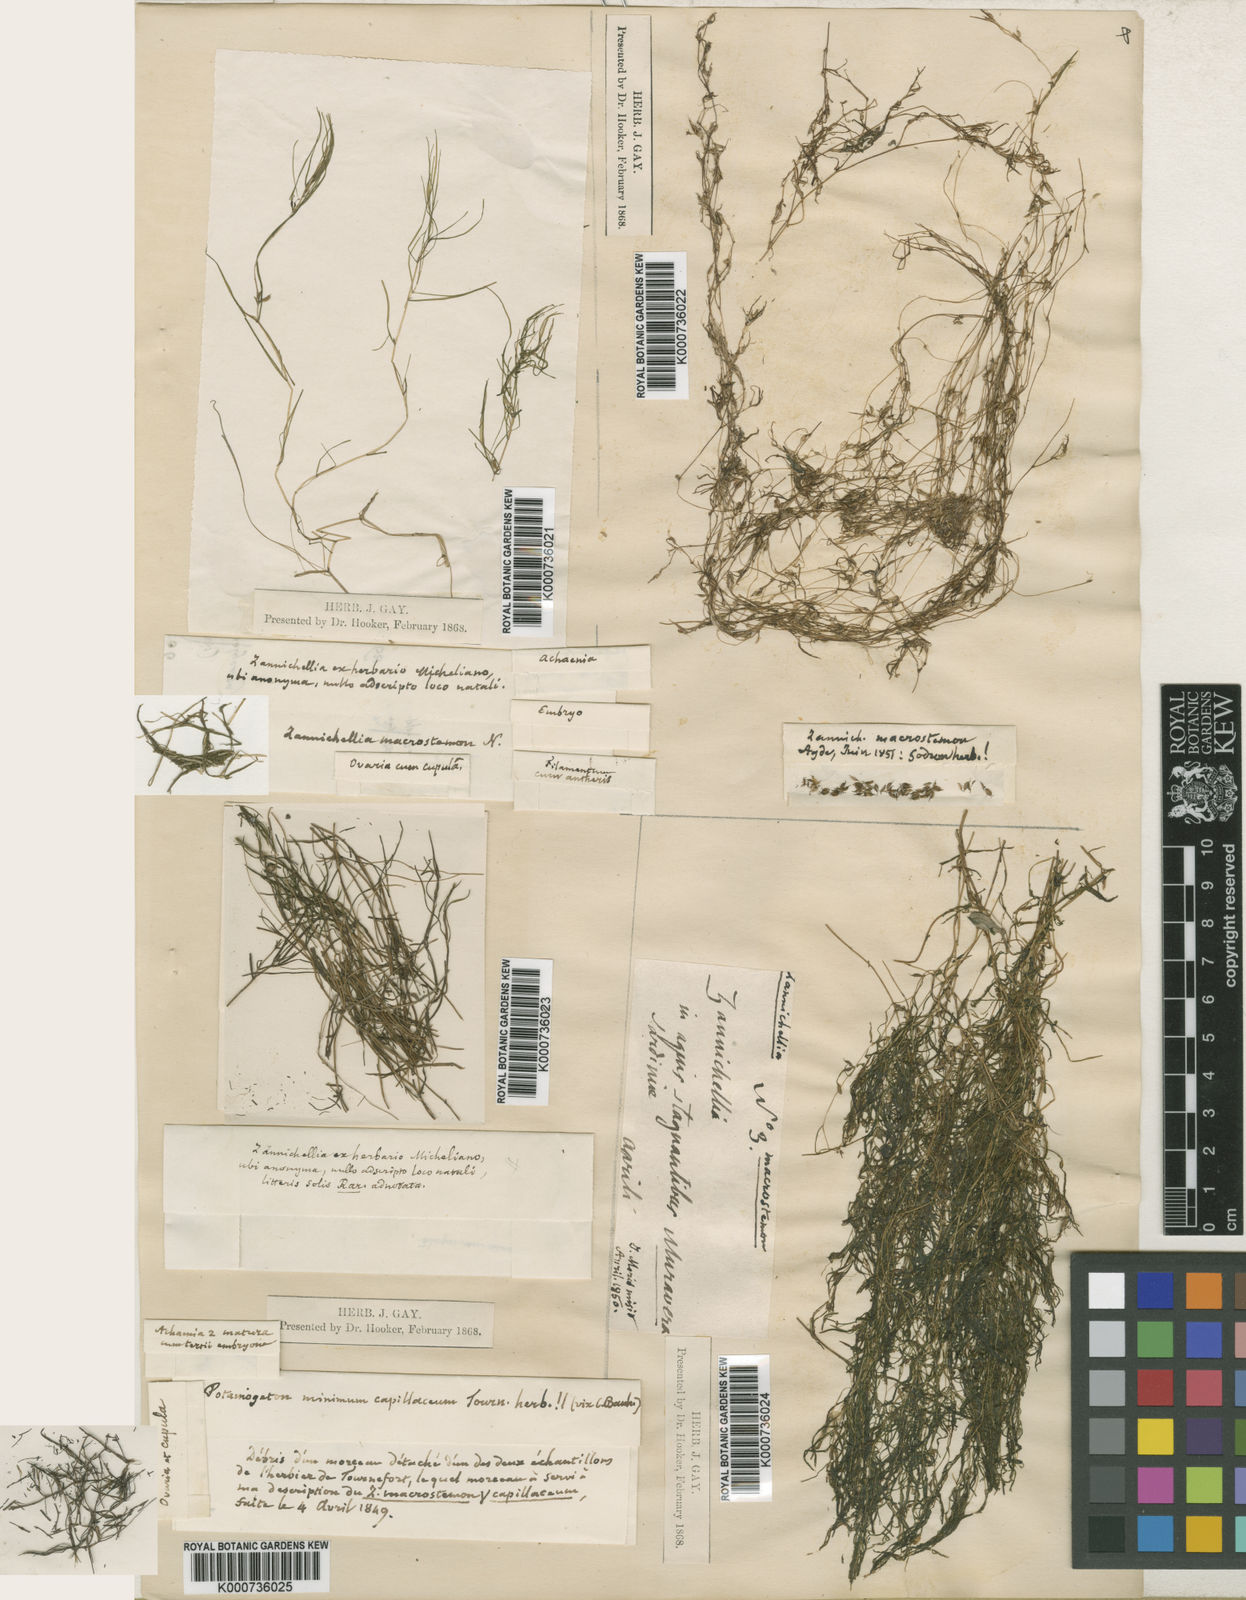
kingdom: Plantae
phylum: Tracheophyta
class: Liliopsida
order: Alismatales
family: Potamogetonaceae
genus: Zannichellia
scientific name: Zannichellia palustris
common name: Horned pondweed
